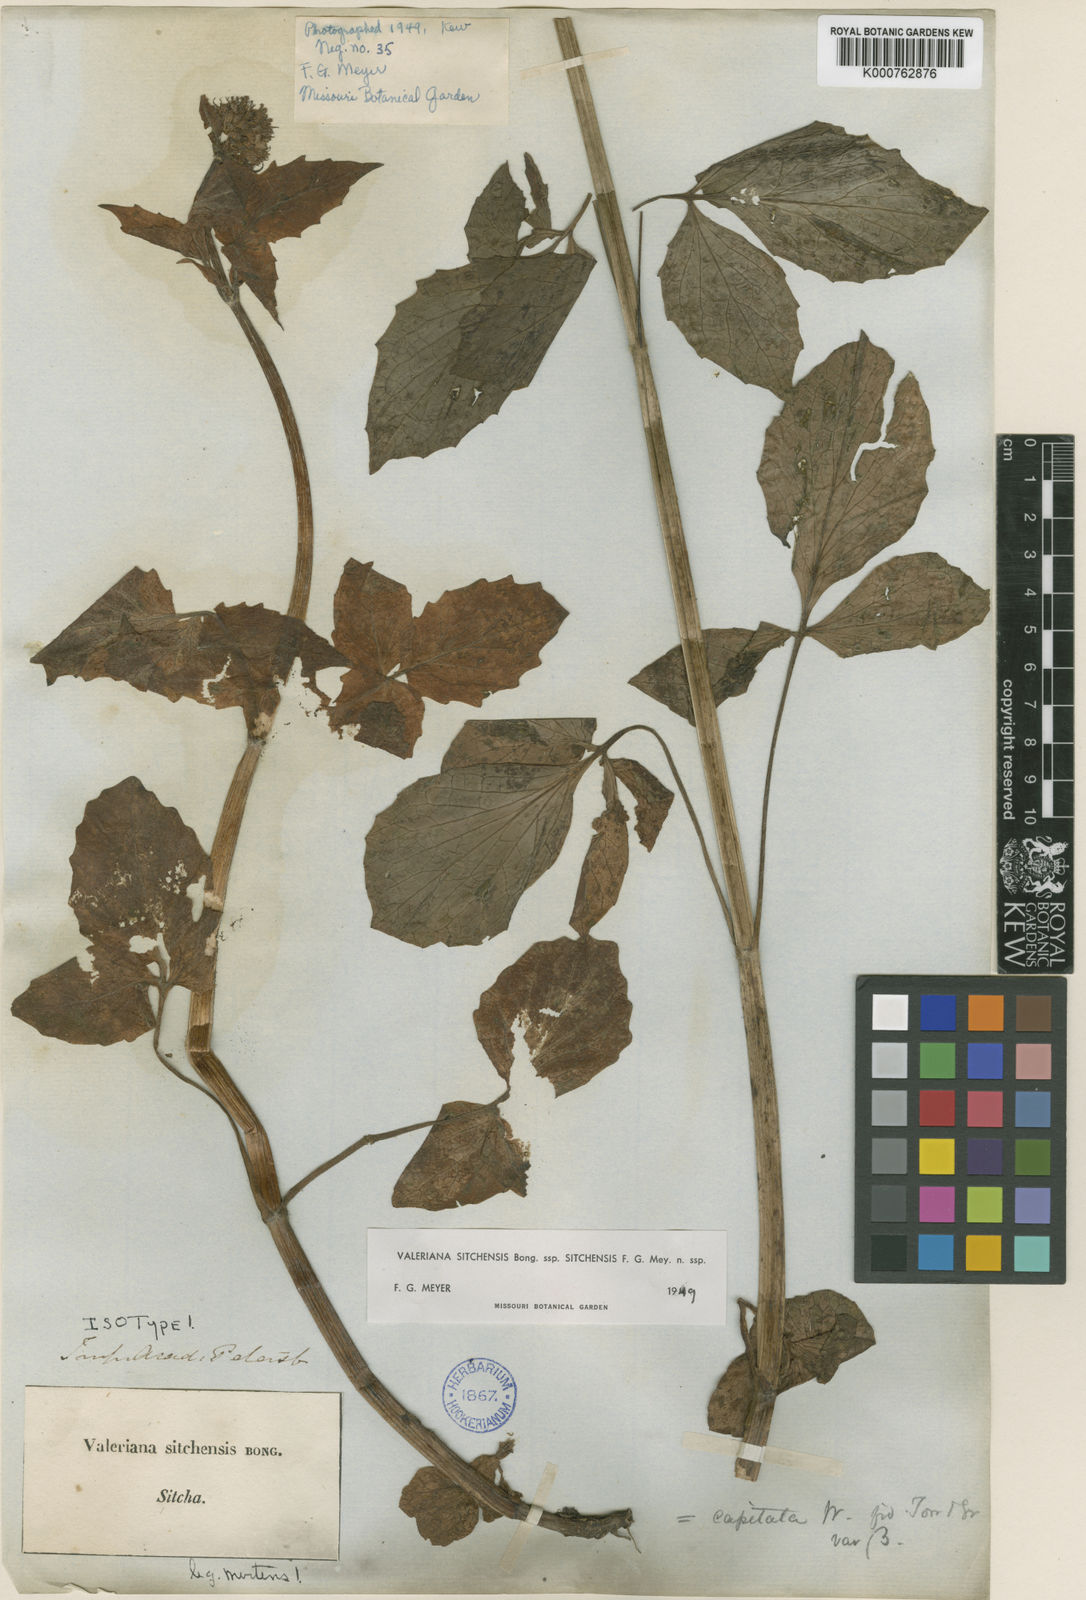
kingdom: Plantae
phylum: Tracheophyta
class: Magnoliopsida
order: Dipsacales
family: Caprifoliaceae
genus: Valeriana
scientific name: Valeriana sitchensis
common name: Pacific valerian
